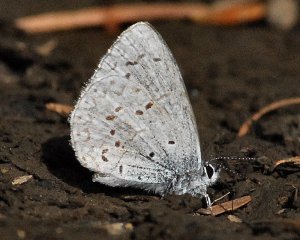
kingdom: Animalia
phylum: Arthropoda
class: Insecta
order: Lepidoptera
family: Lycaenidae
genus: Celastrina
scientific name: Celastrina
